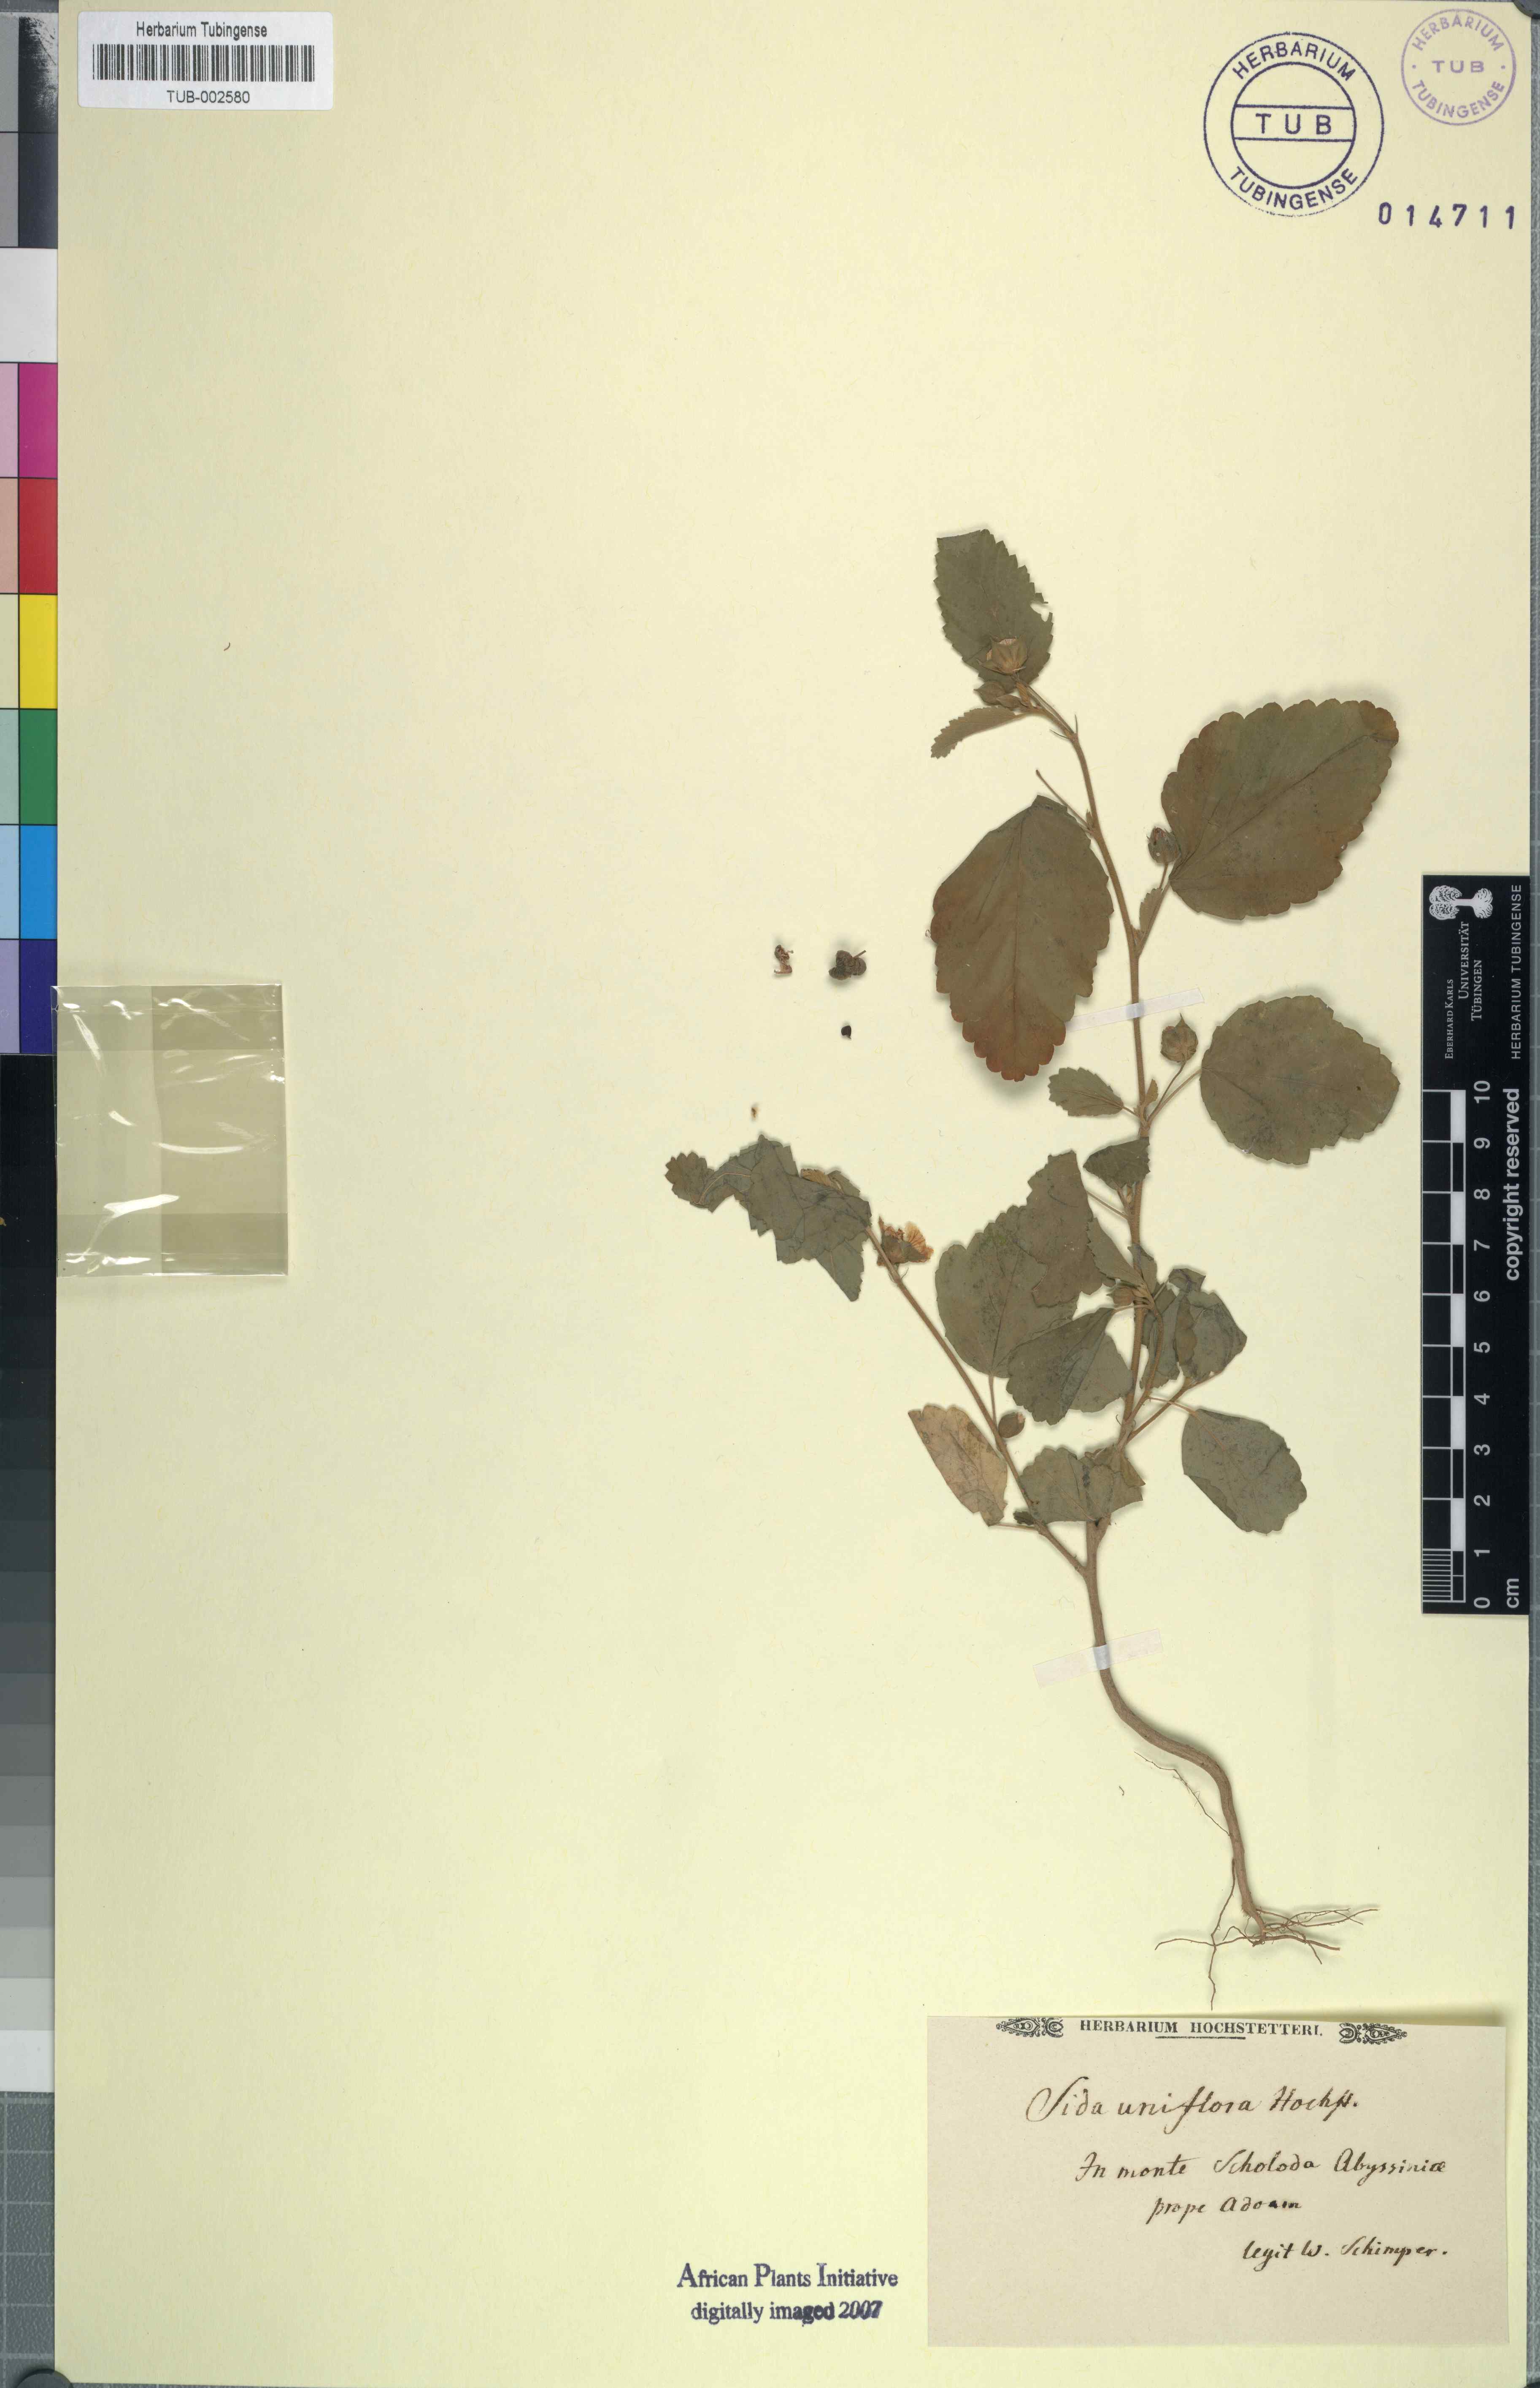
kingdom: Plantae
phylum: Tracheophyta
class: Magnoliopsida
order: Malvales
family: Malvaceae
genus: Sida
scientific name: Sida
